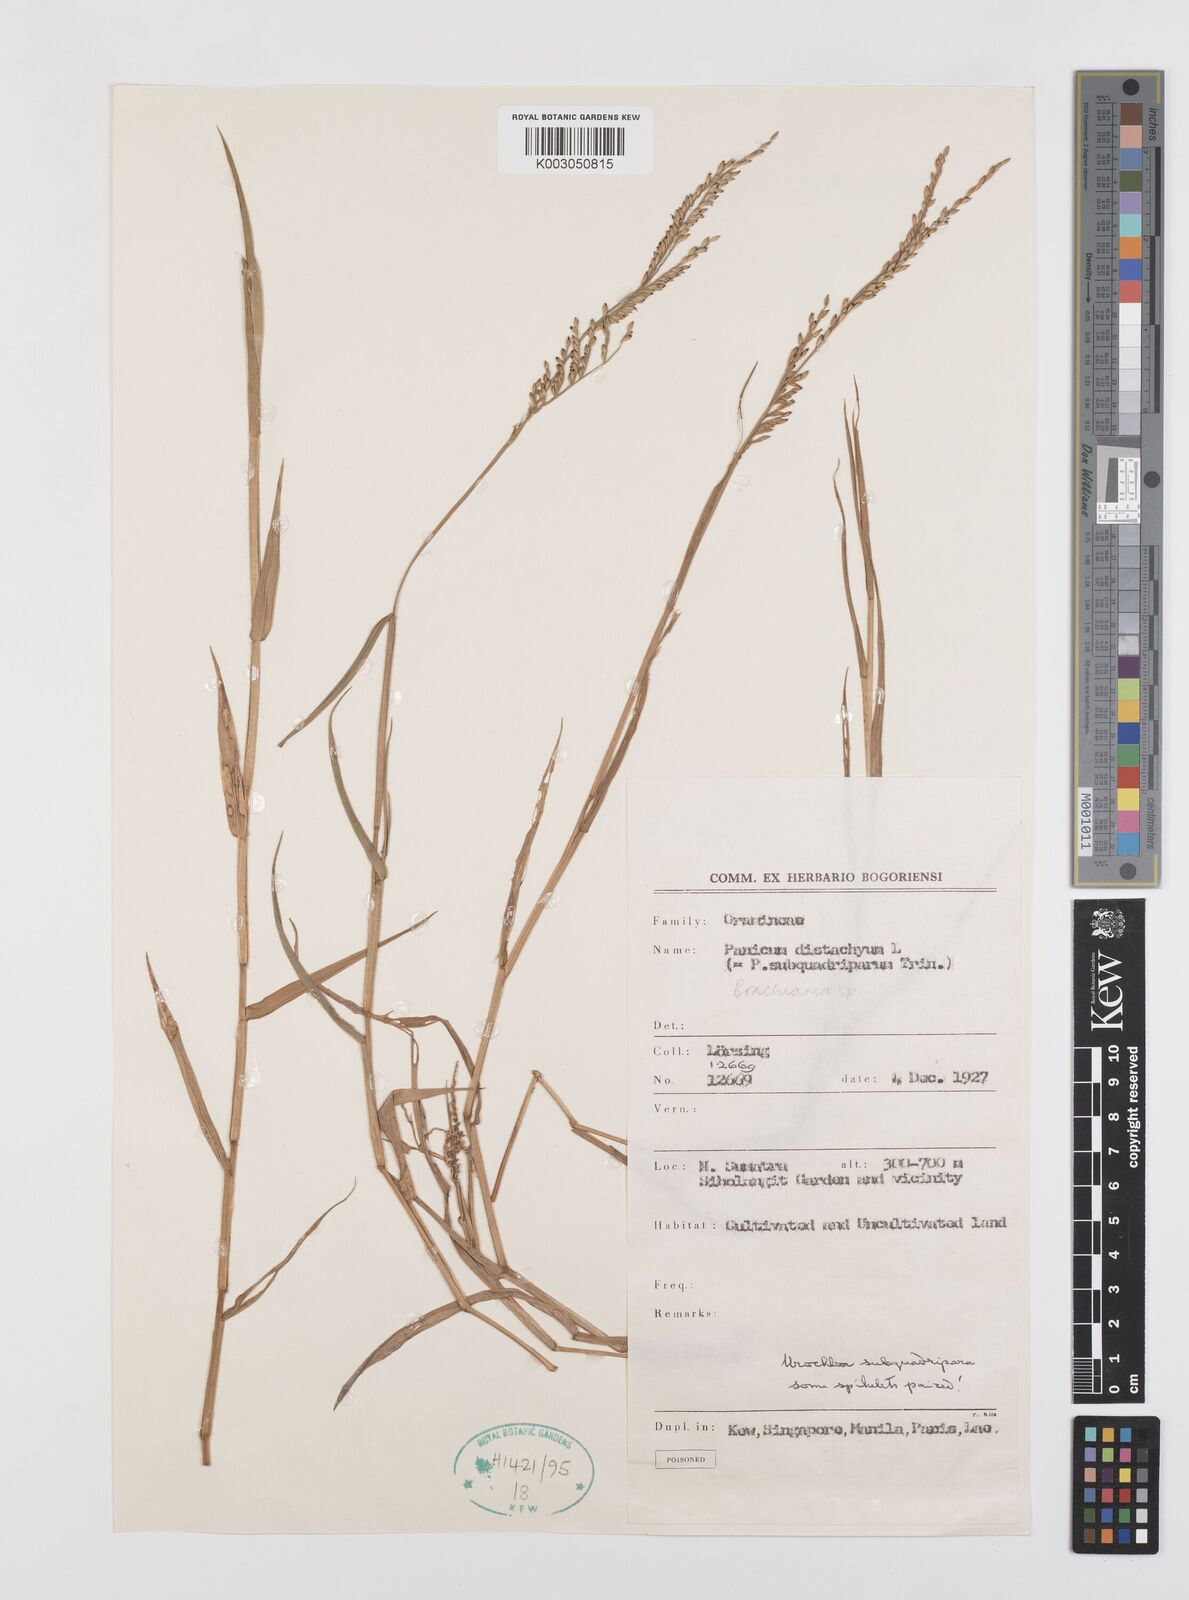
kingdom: Plantae
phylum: Tracheophyta
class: Liliopsida
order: Poales
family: Poaceae
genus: Urochloa
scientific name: Urochloa subquadripara
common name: Armgrass millet
